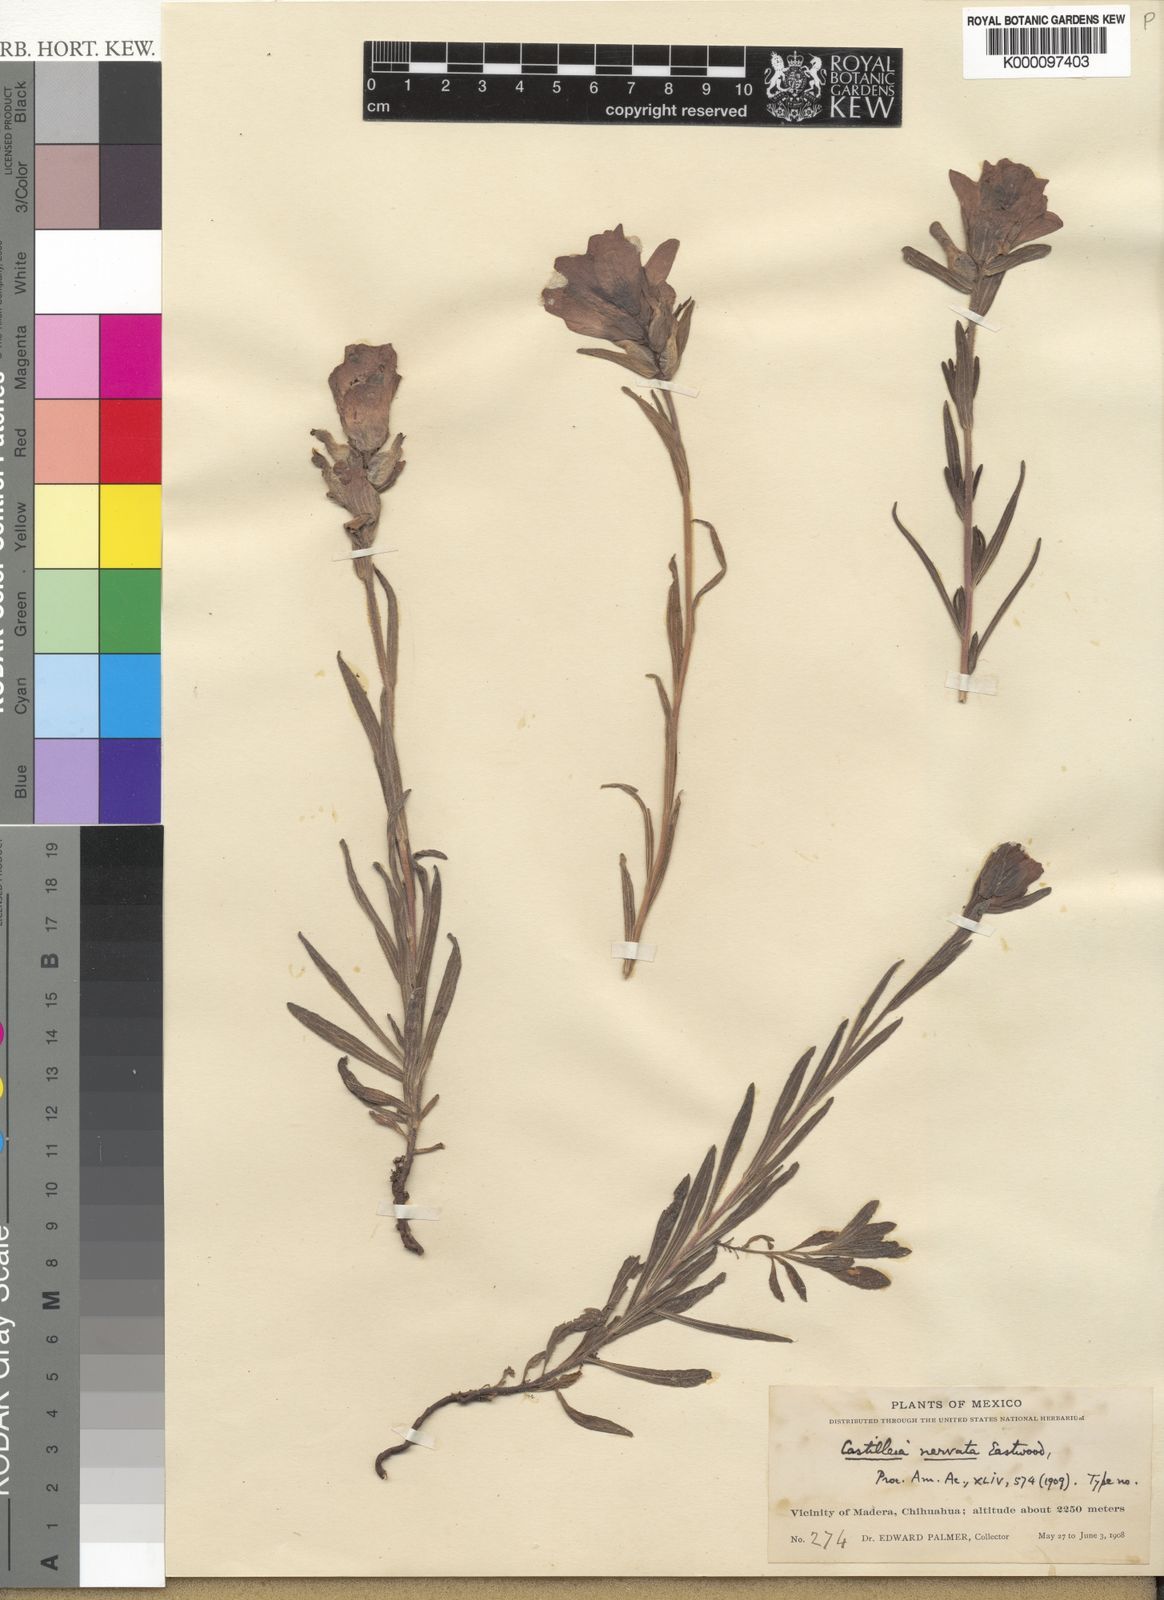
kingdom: Plantae
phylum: Tracheophyta
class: Magnoliopsida
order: Lamiales
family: Orobanchaceae
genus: Castilleja
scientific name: Castilleja nervata
